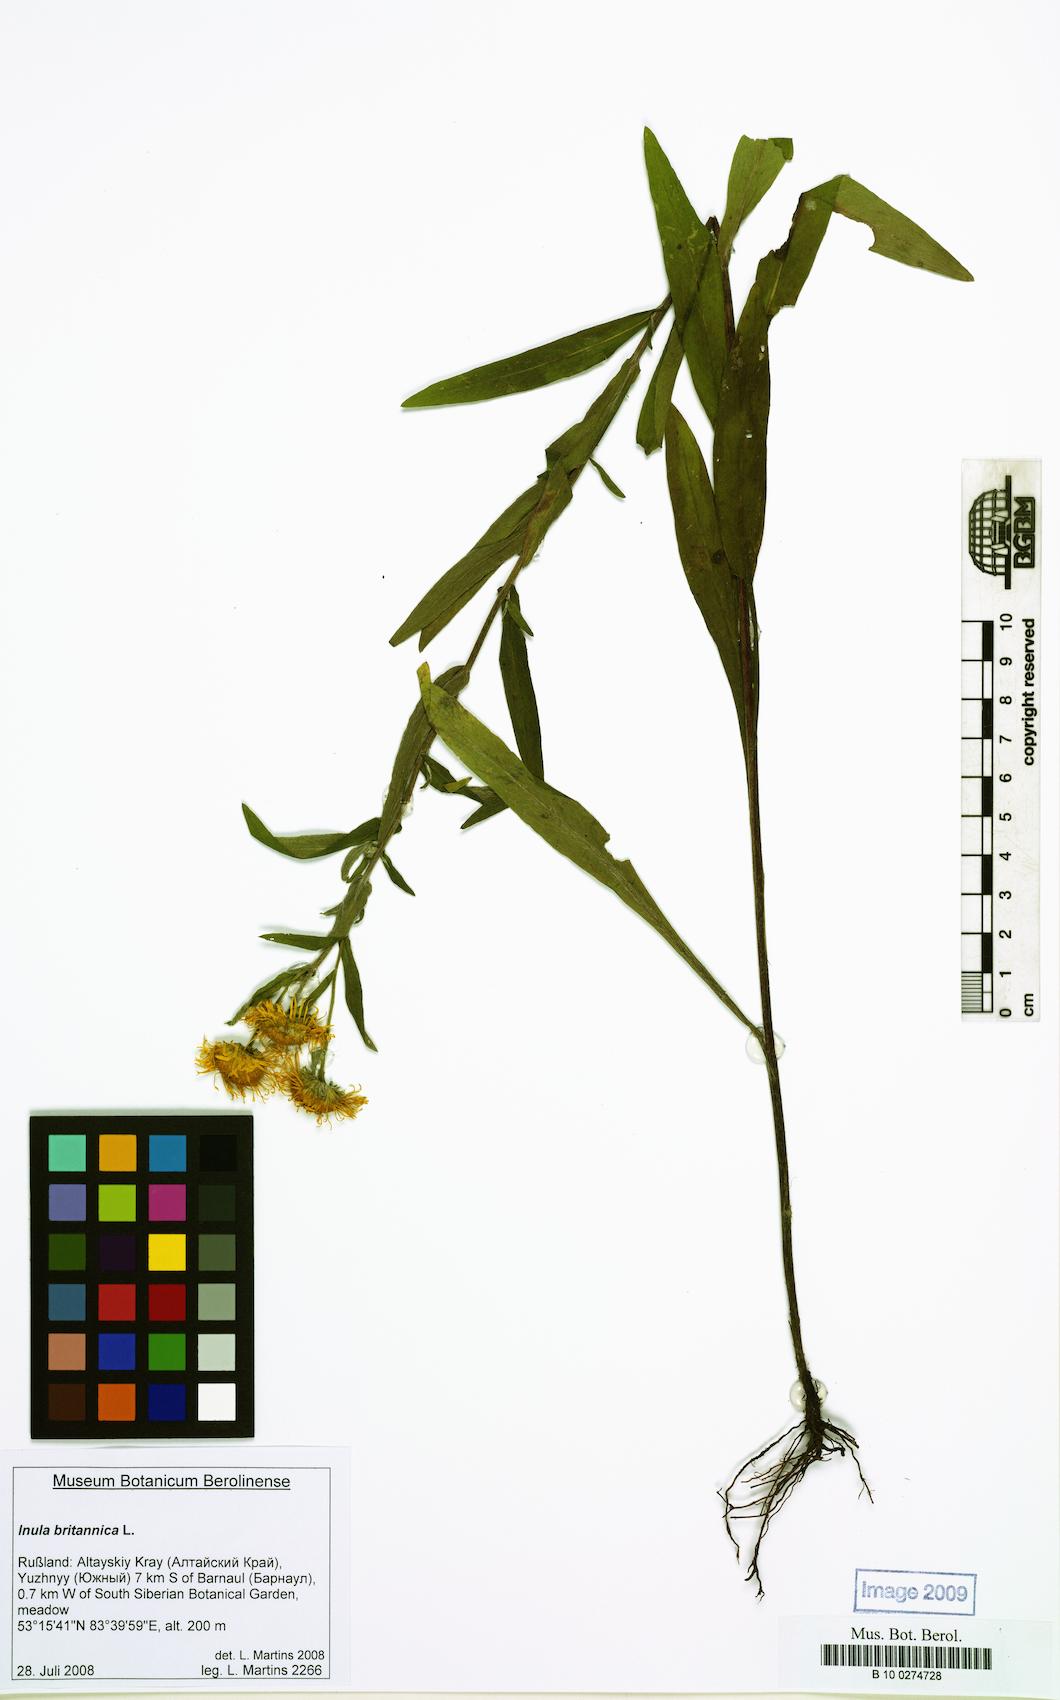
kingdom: Plantae
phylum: Tracheophyta
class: Magnoliopsida
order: Asterales
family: Asteraceae
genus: Pentanema
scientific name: Pentanema britannicum
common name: British elecampane
